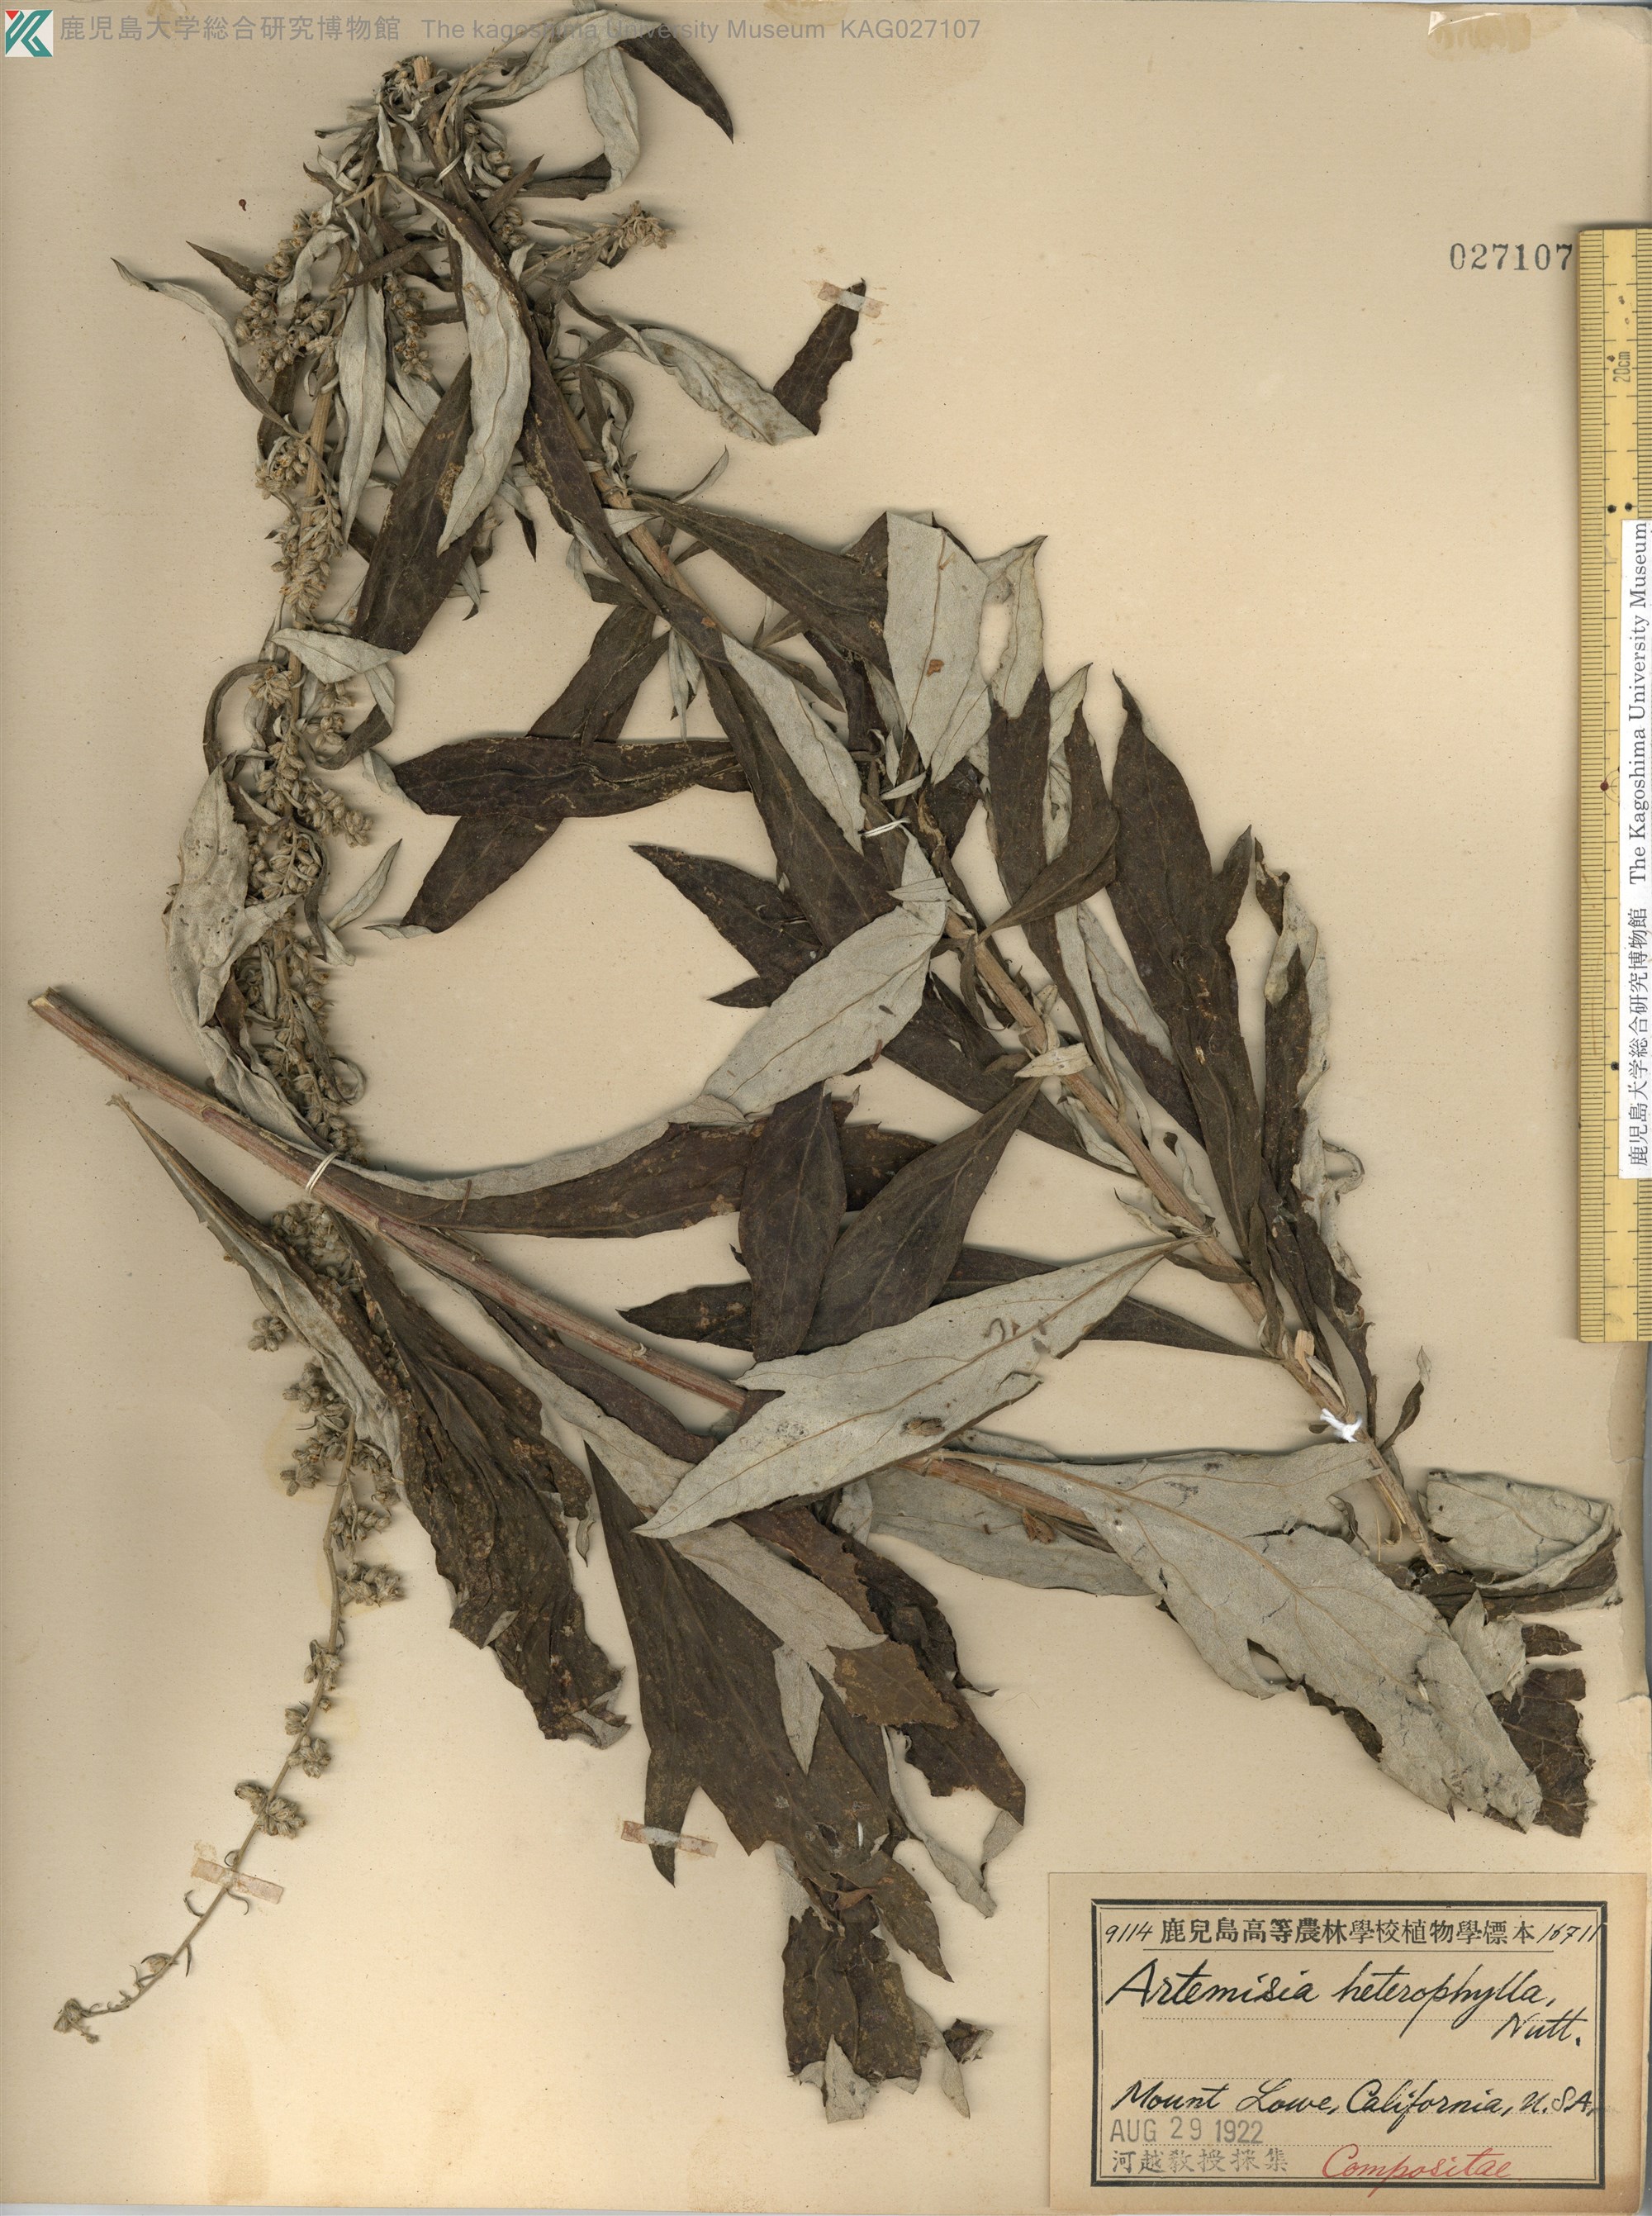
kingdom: Plantae
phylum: Tracheophyta
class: Magnoliopsida
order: Asterales
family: Asteraceae
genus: Artemisia
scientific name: Artemisia suksdorfii
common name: Suksdorf sagewort
